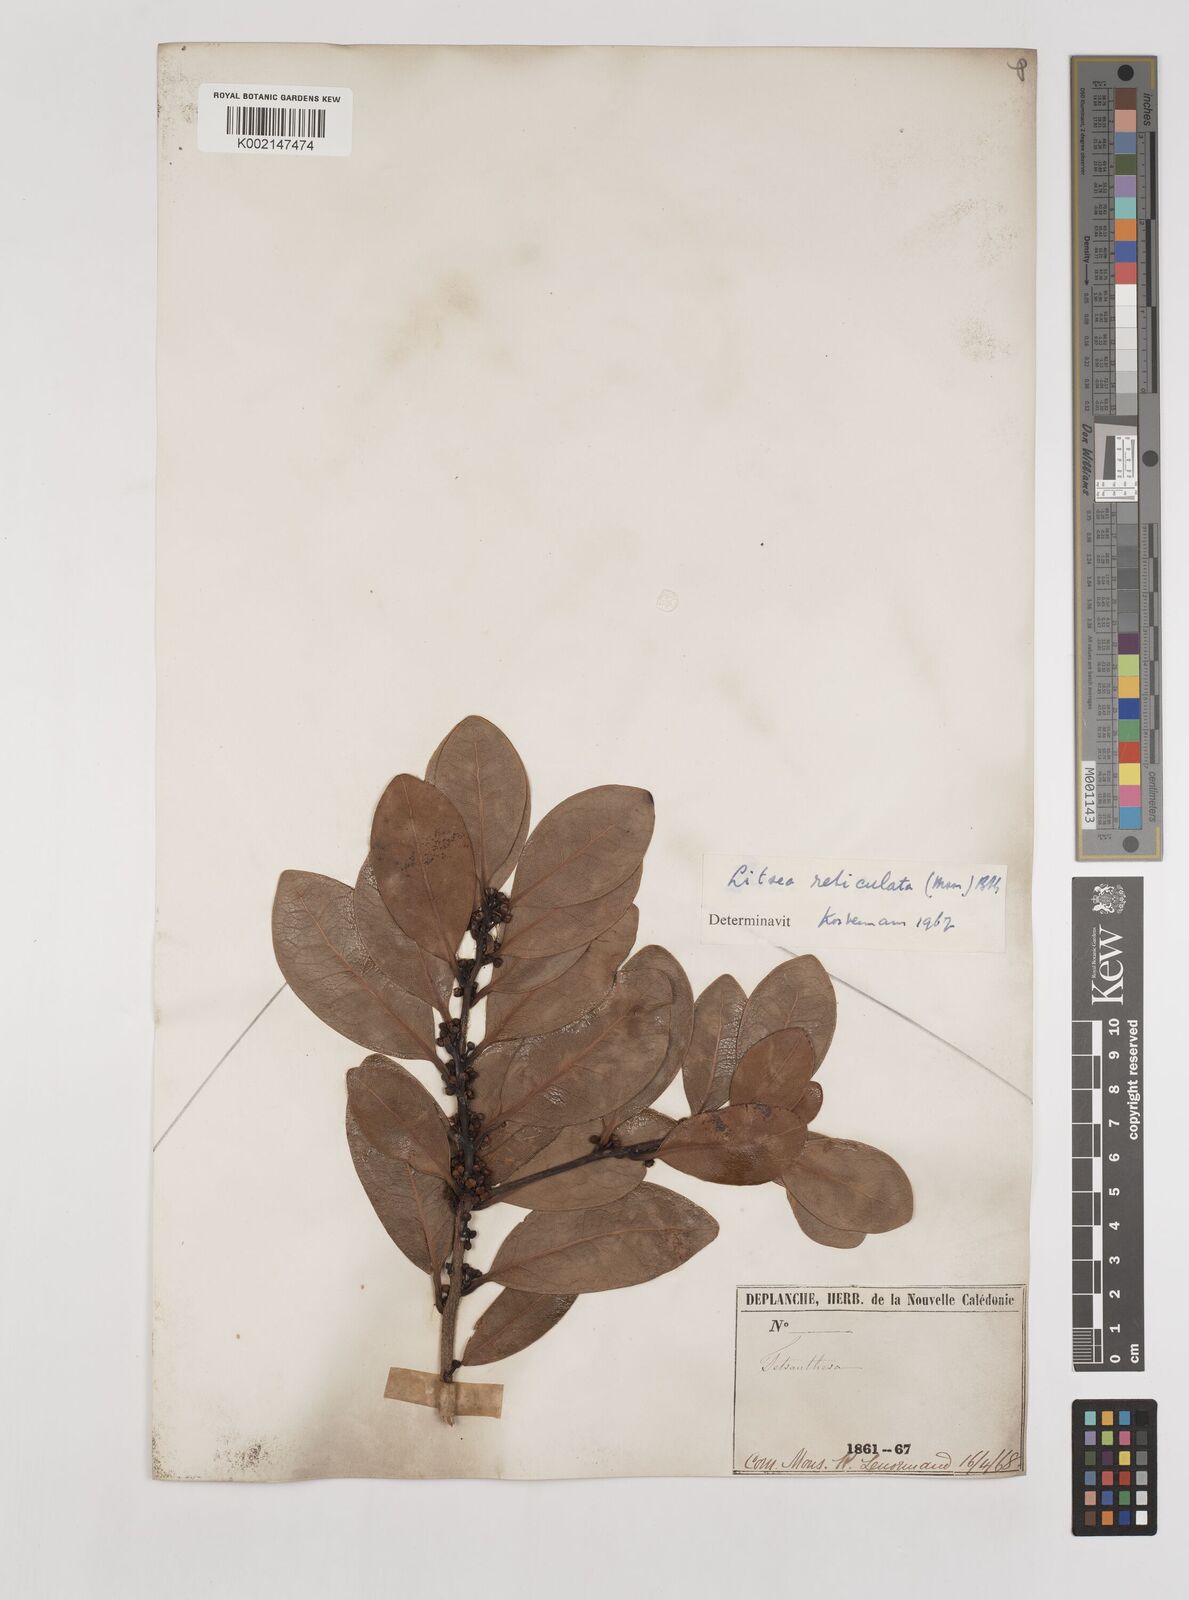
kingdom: Plantae
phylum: Tracheophyta
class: Magnoliopsida
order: Laurales
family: Lauraceae
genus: Litsea
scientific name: Litsea reticulata
